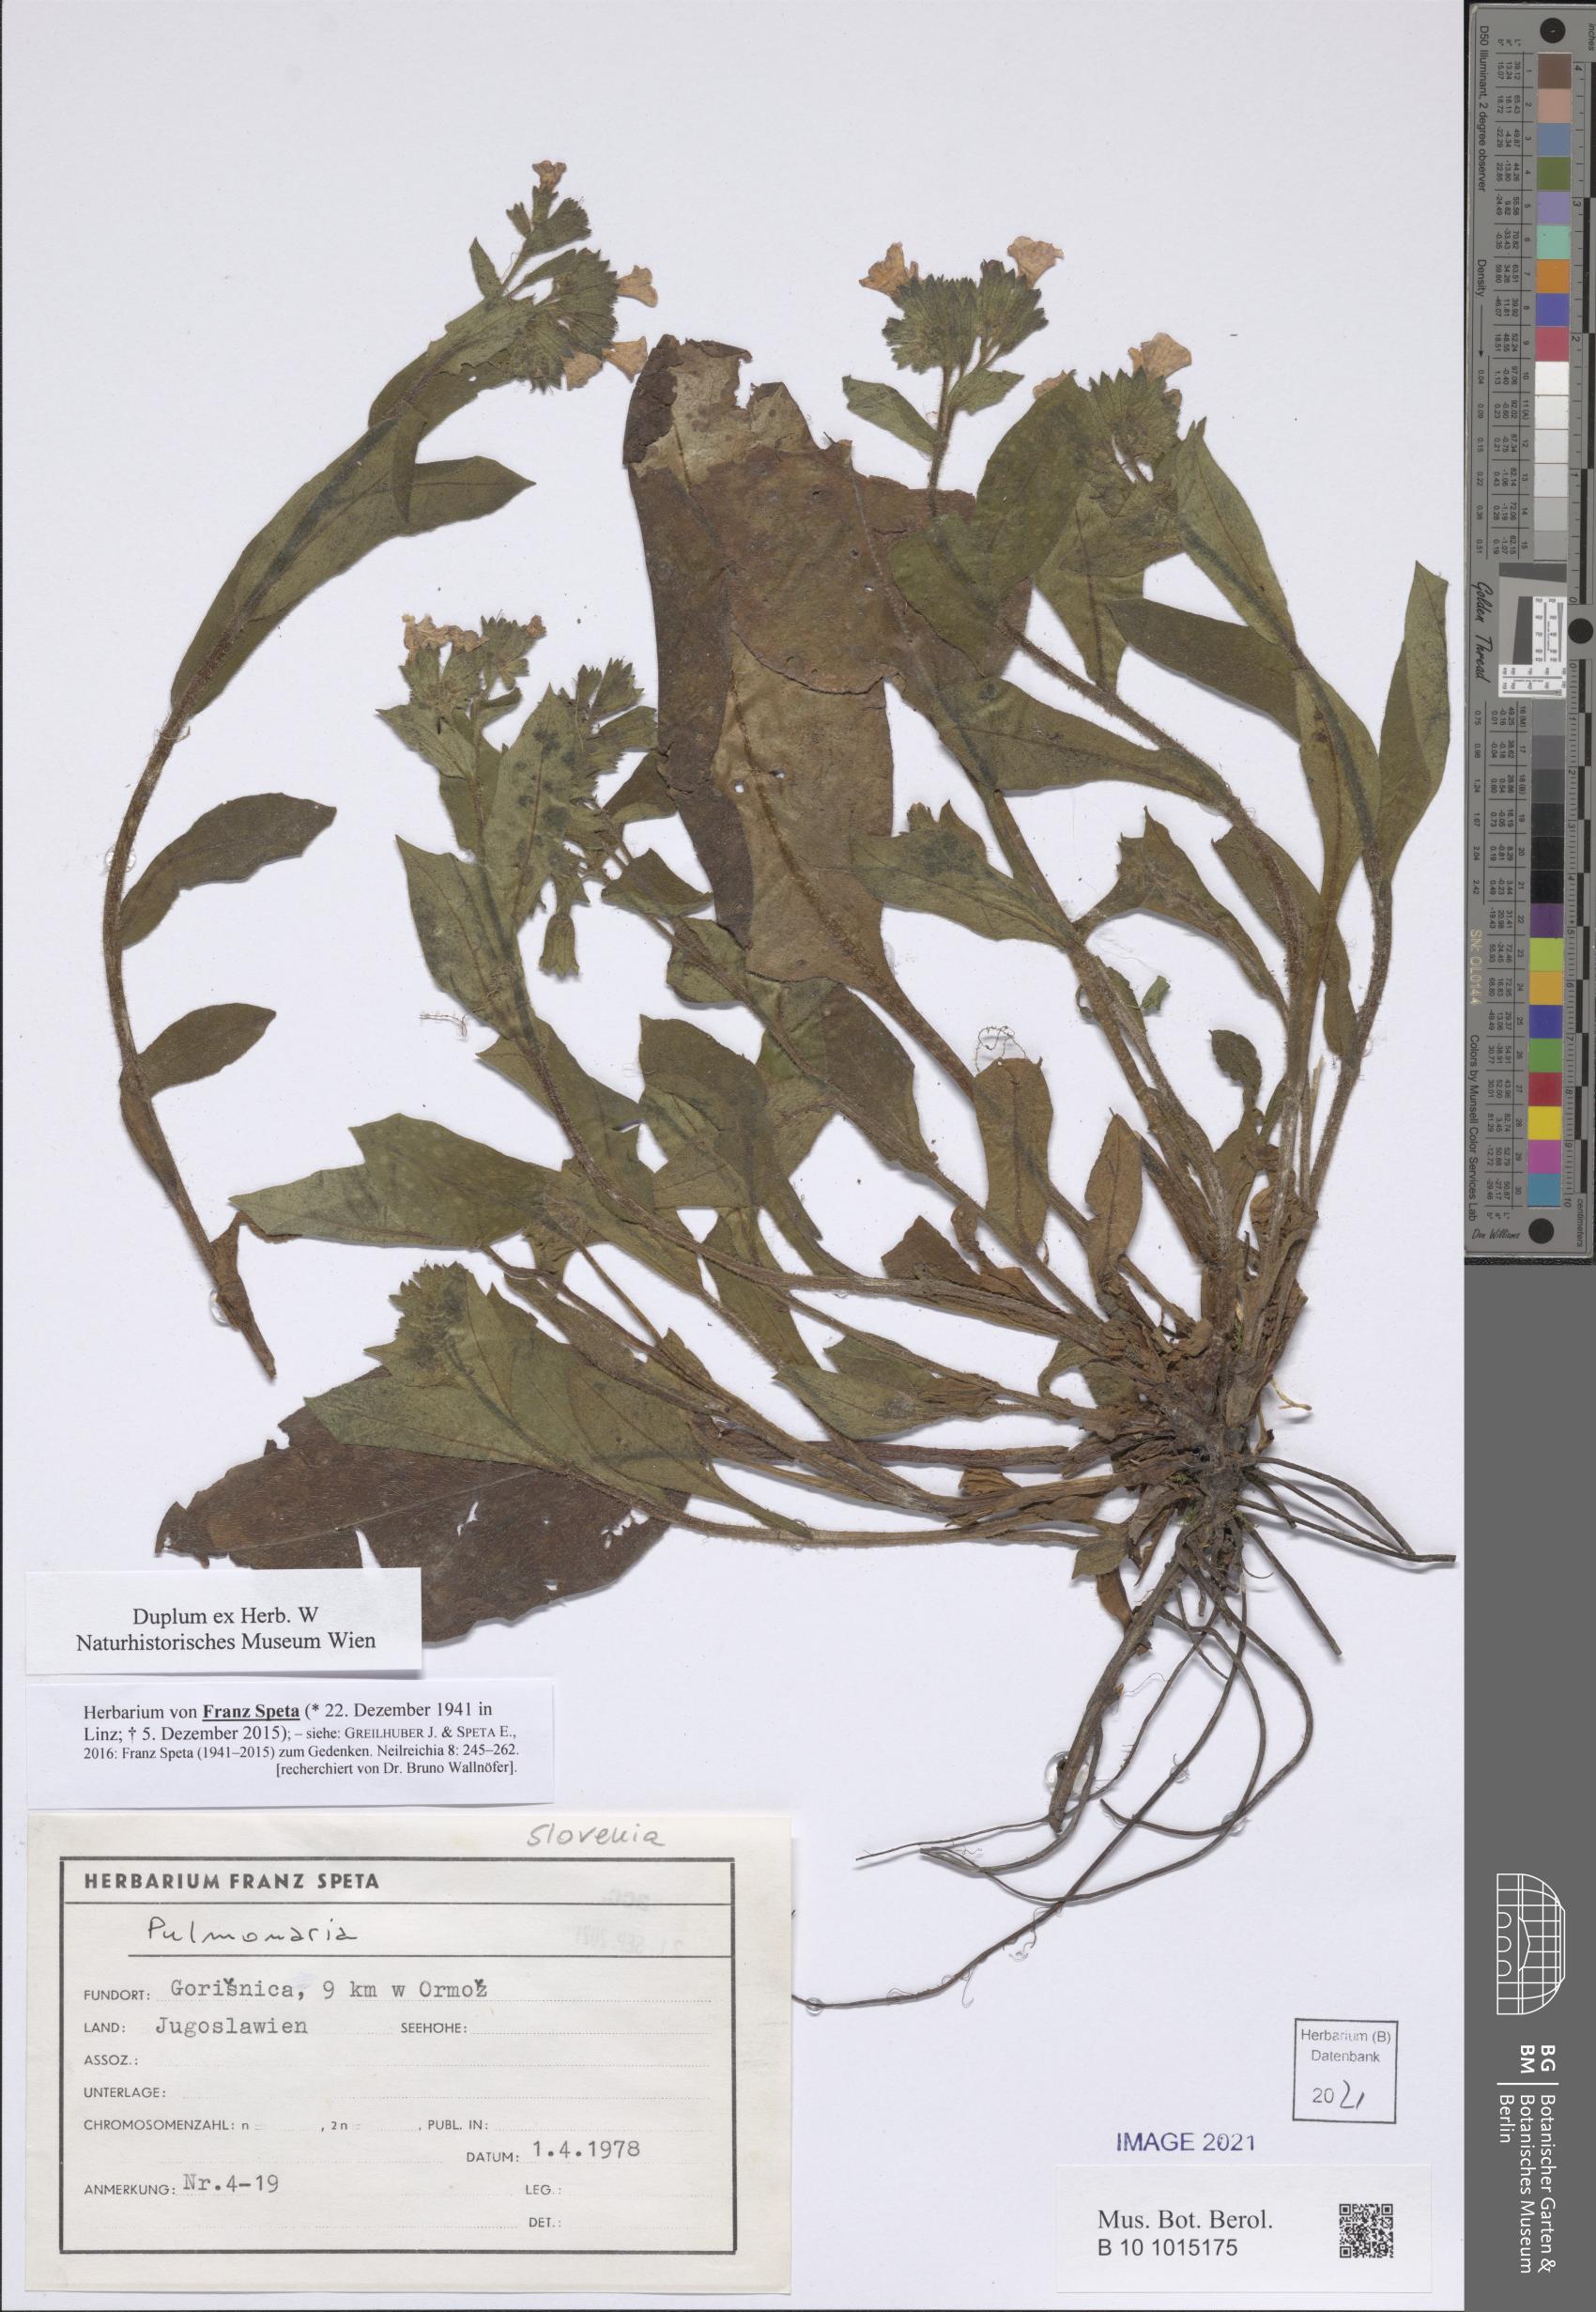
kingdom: Plantae
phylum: Tracheophyta
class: Magnoliopsida
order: Boraginales
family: Boraginaceae
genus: Pulmonaria
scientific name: Pulmonaria
